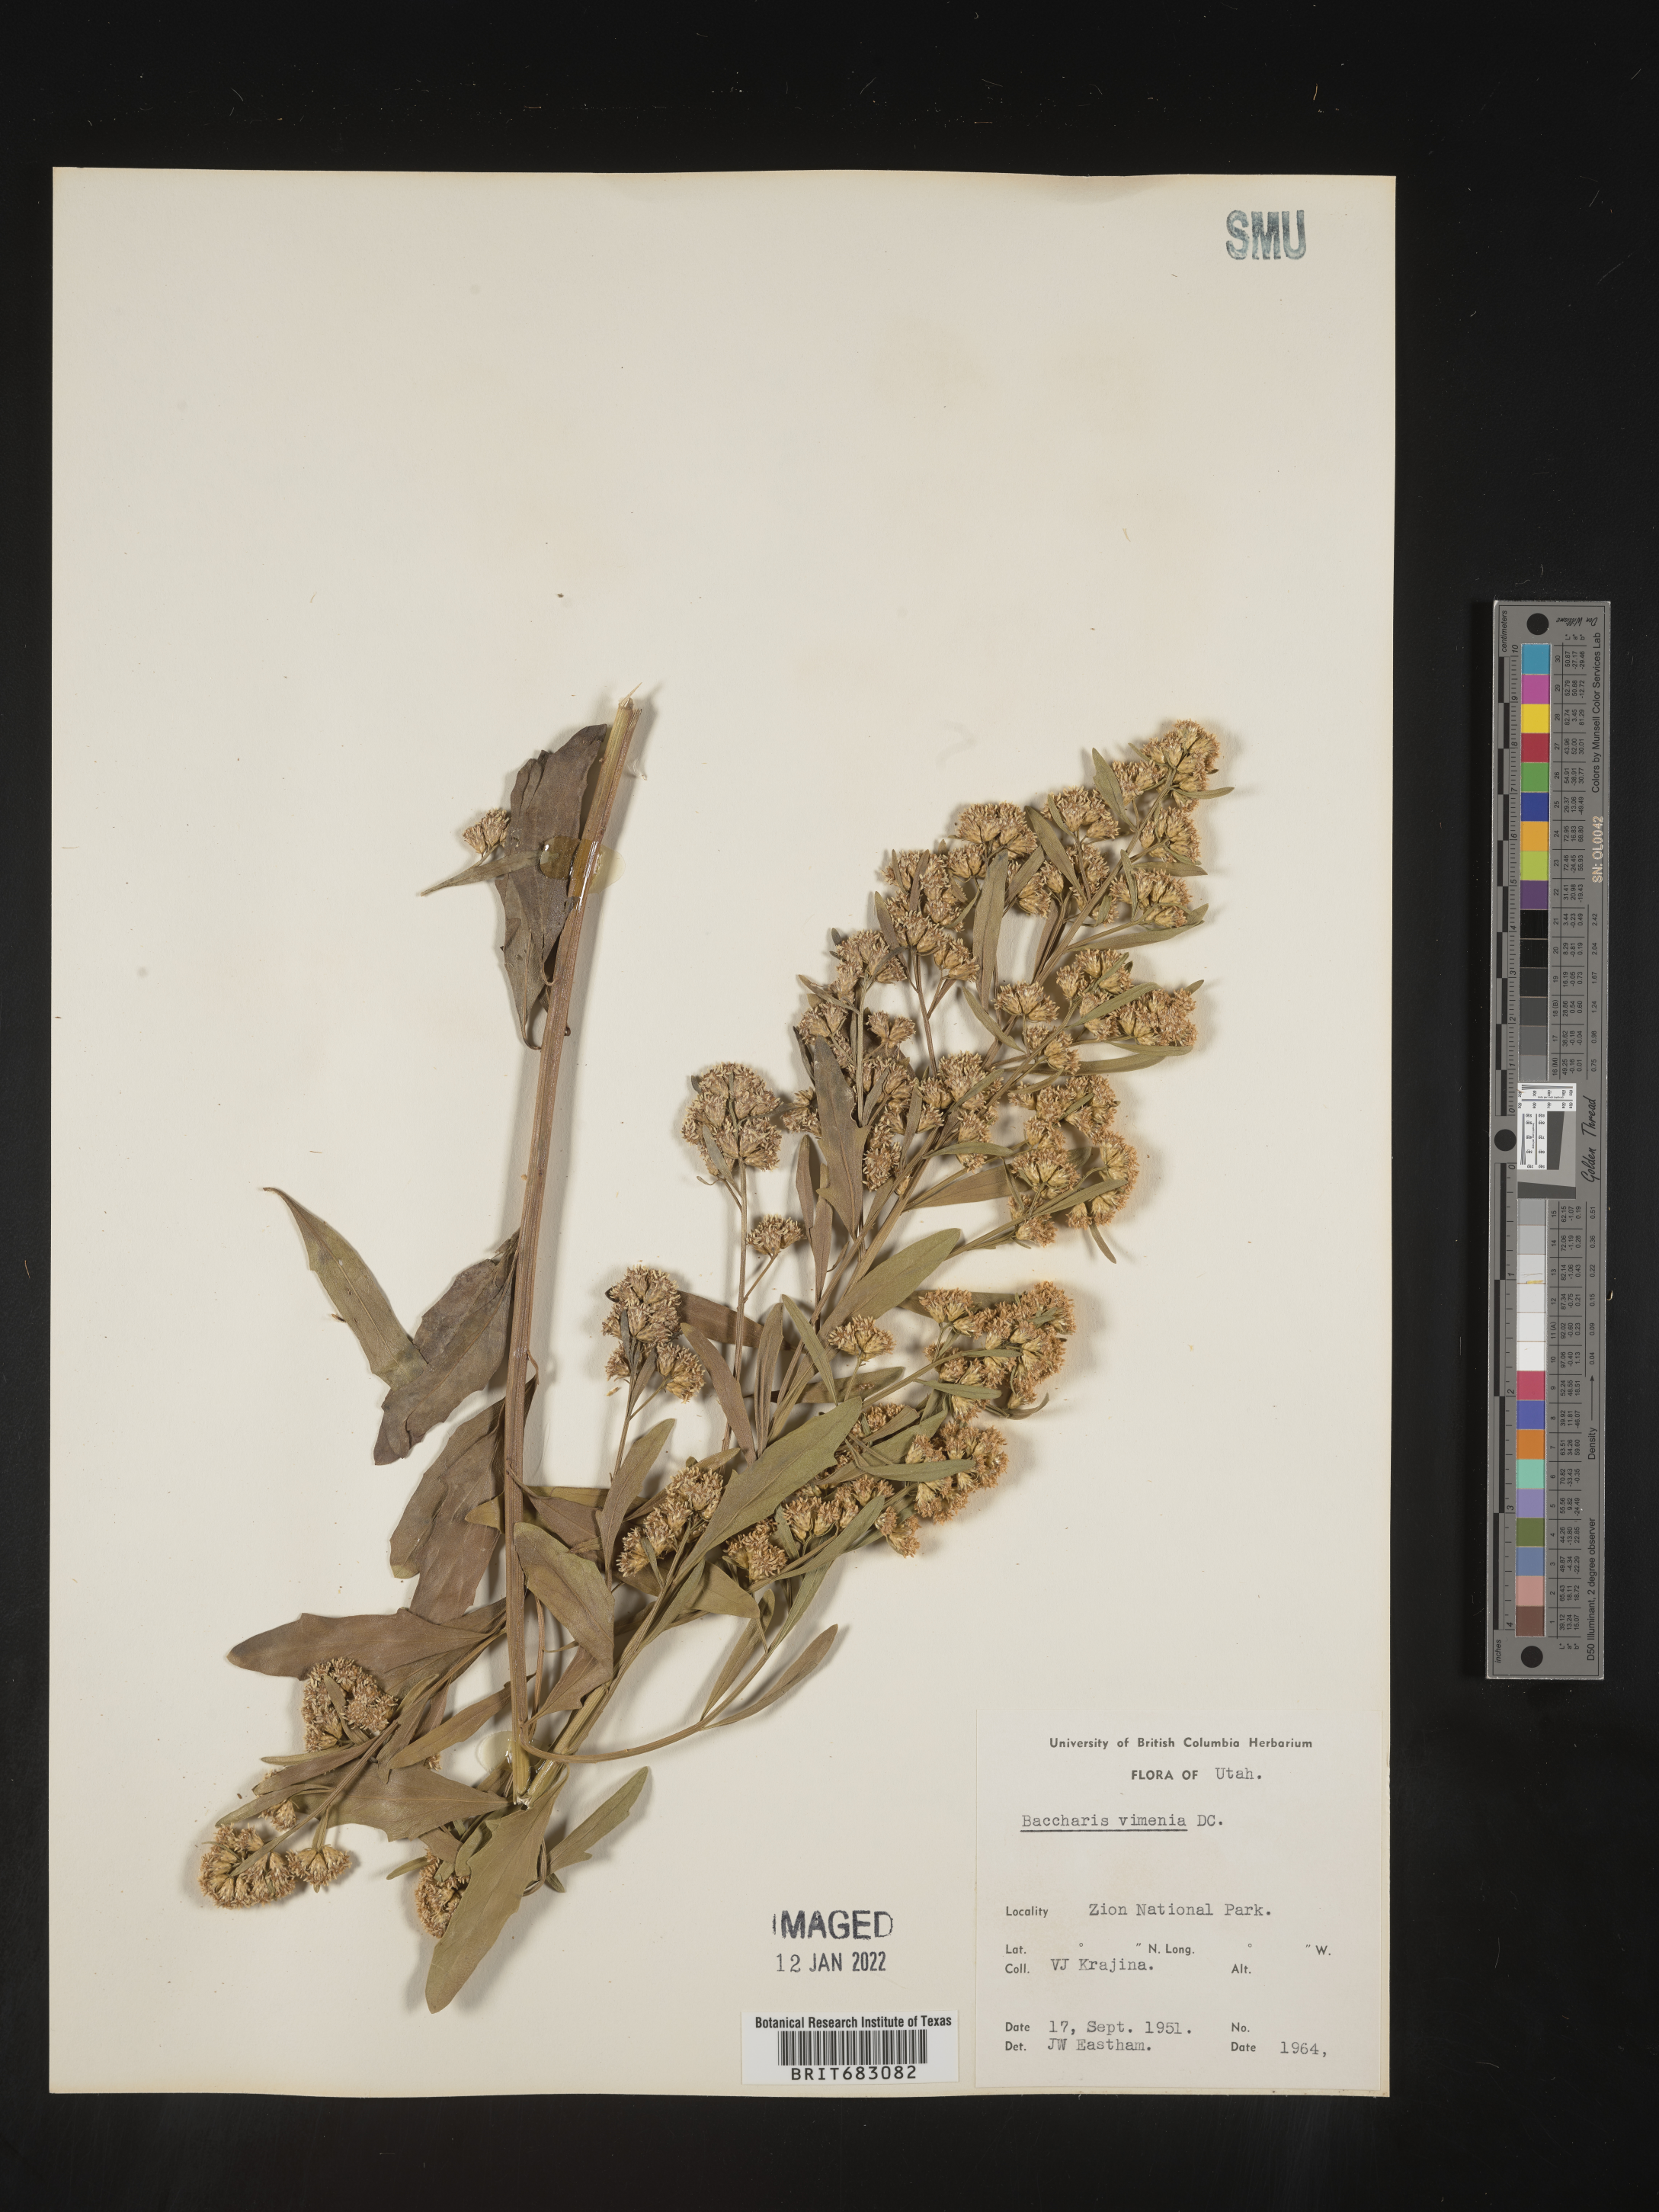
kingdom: Plantae
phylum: Tracheophyta
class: Magnoliopsida
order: Asterales
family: Asteraceae
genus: Baccharis
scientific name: Baccharis salicifolia
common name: Sticky baccharis
